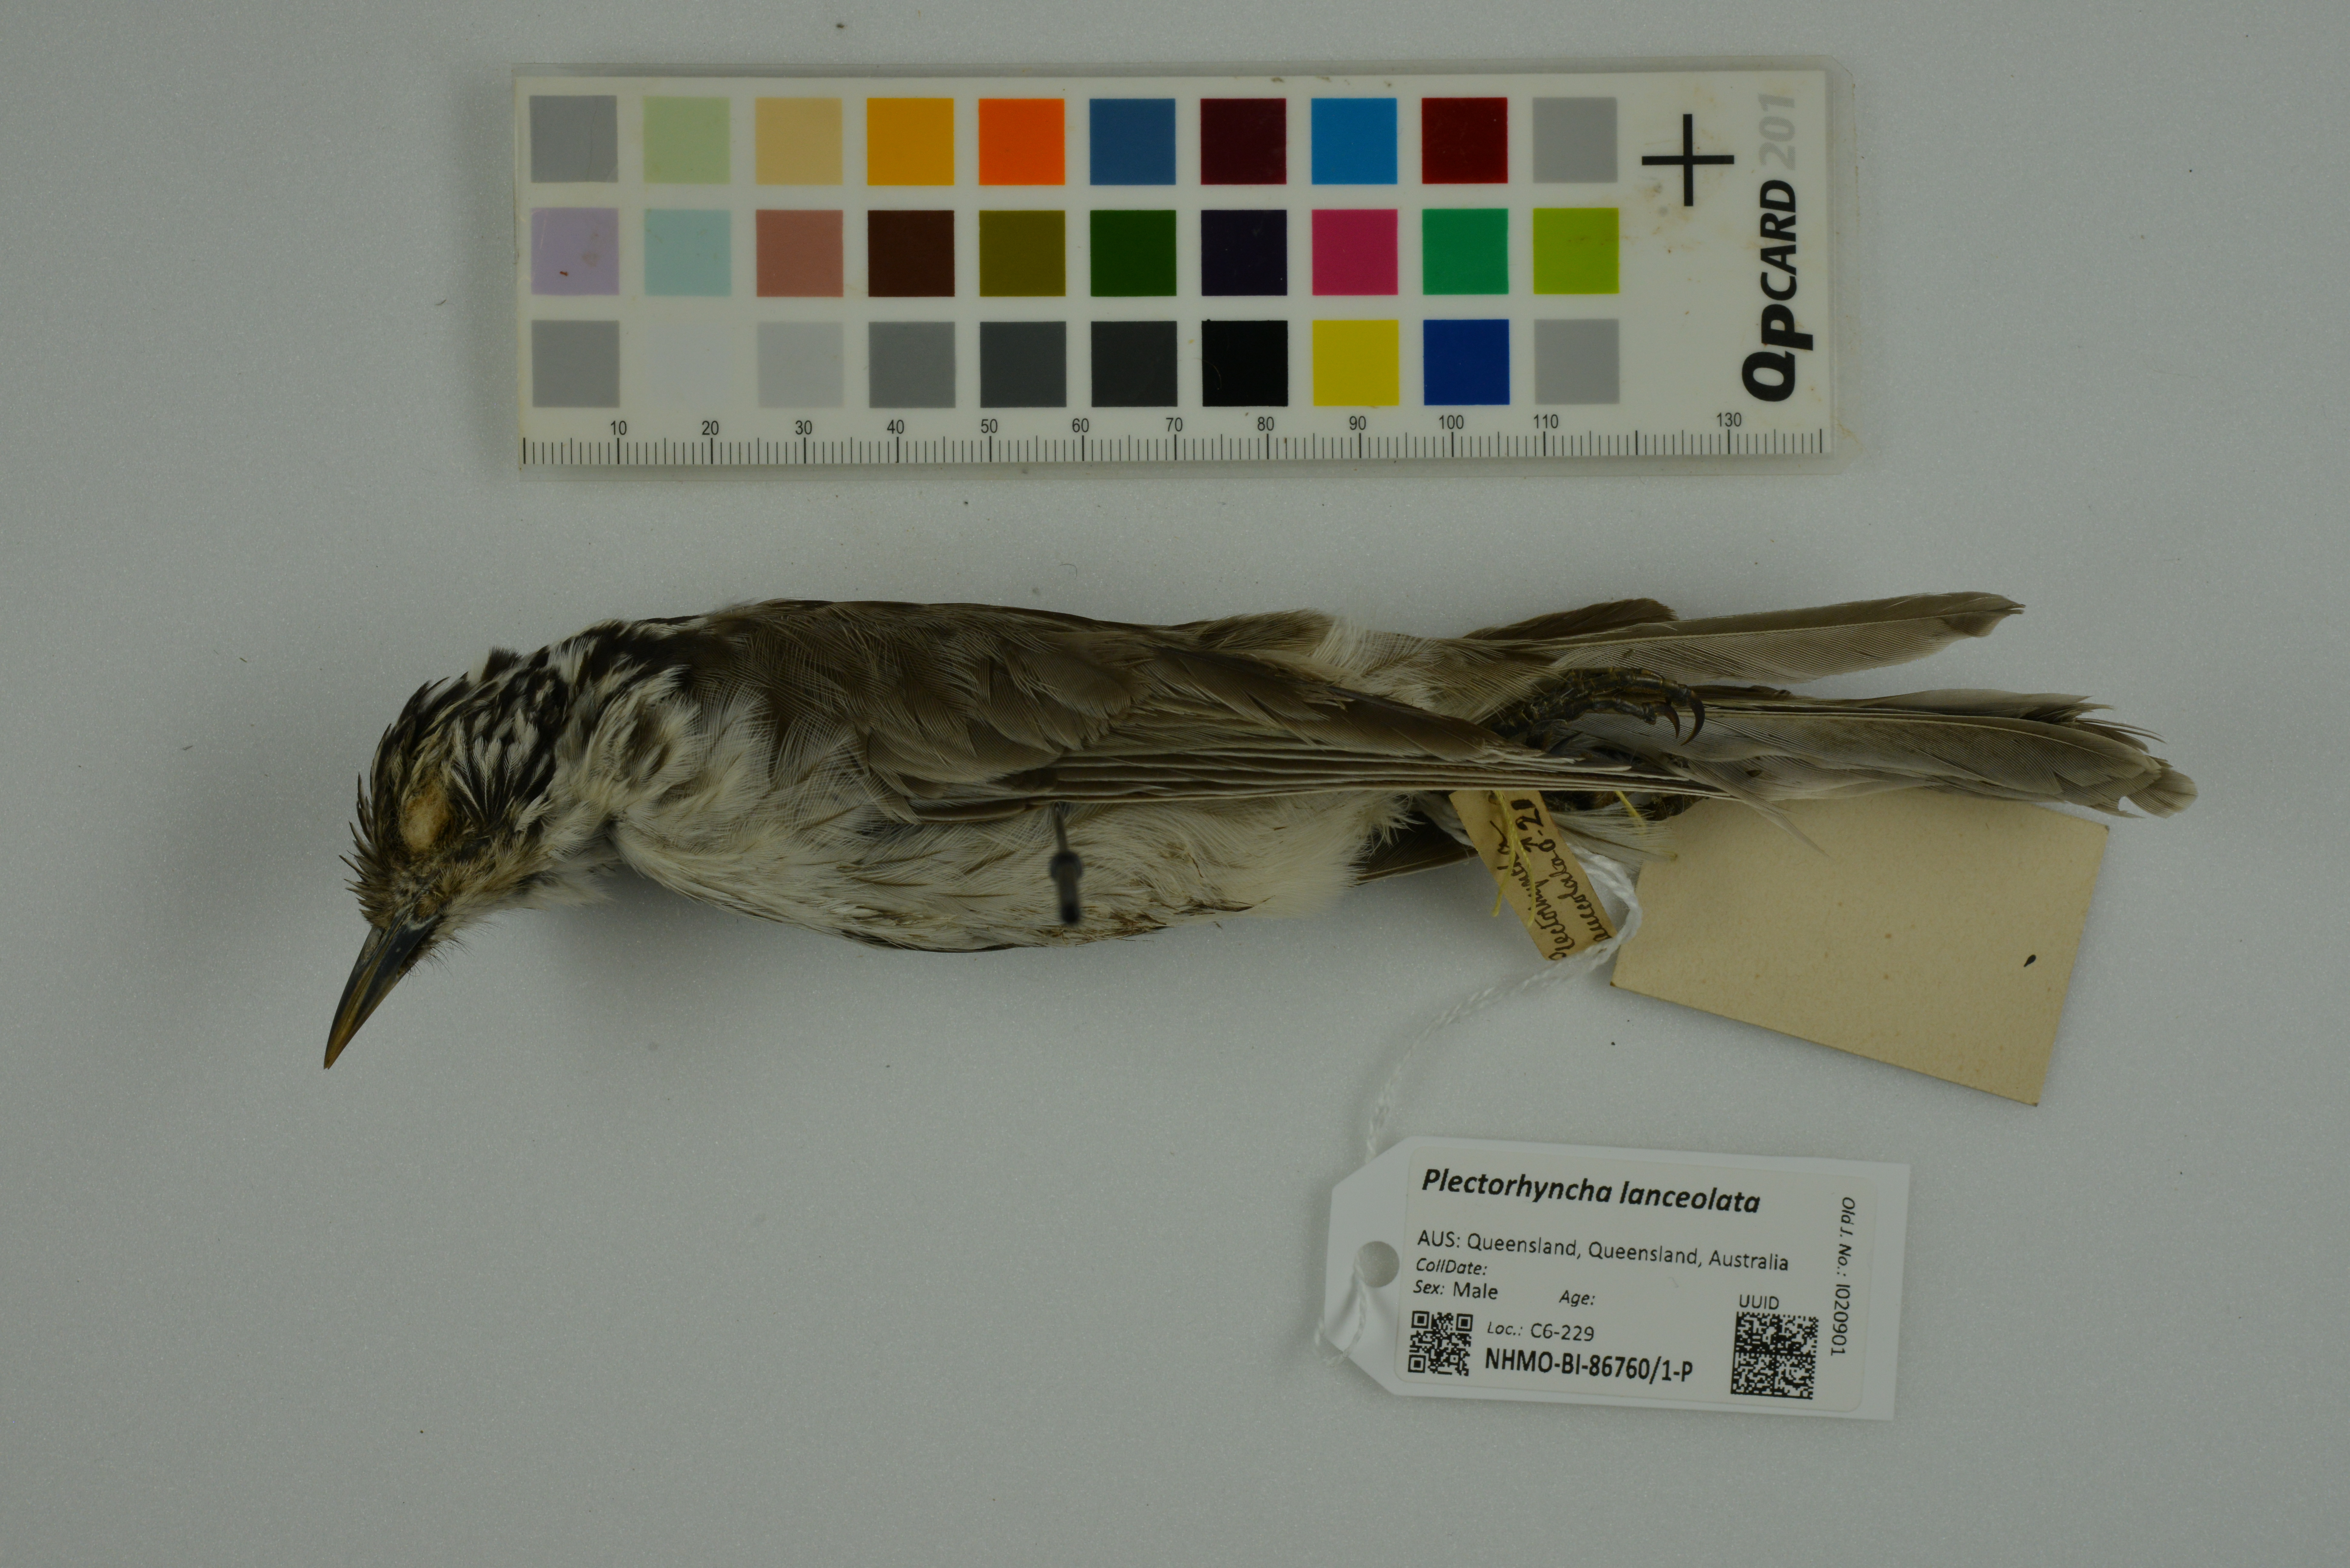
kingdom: Animalia
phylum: Chordata
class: Aves
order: Passeriformes
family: Meliphagidae
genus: Plectorhyncha
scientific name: Plectorhyncha lanceolata
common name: Striped honeyeater
